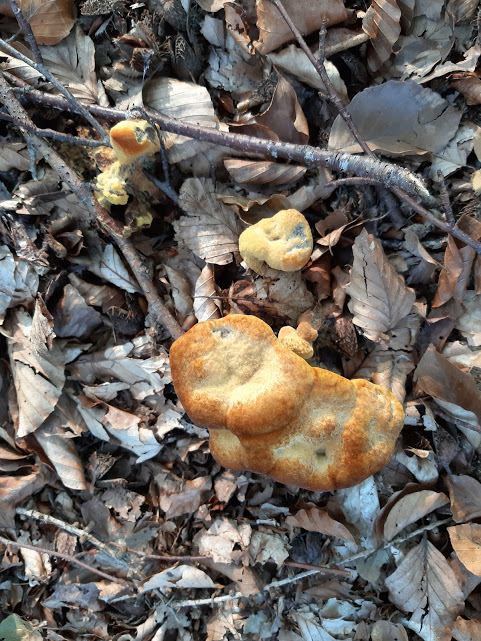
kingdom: Fungi
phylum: Basidiomycota
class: Agaricomycetes
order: Polyporales
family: Laetiporaceae
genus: Phaeolus
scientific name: Phaeolus schweinitzii
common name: brunporesvamp
